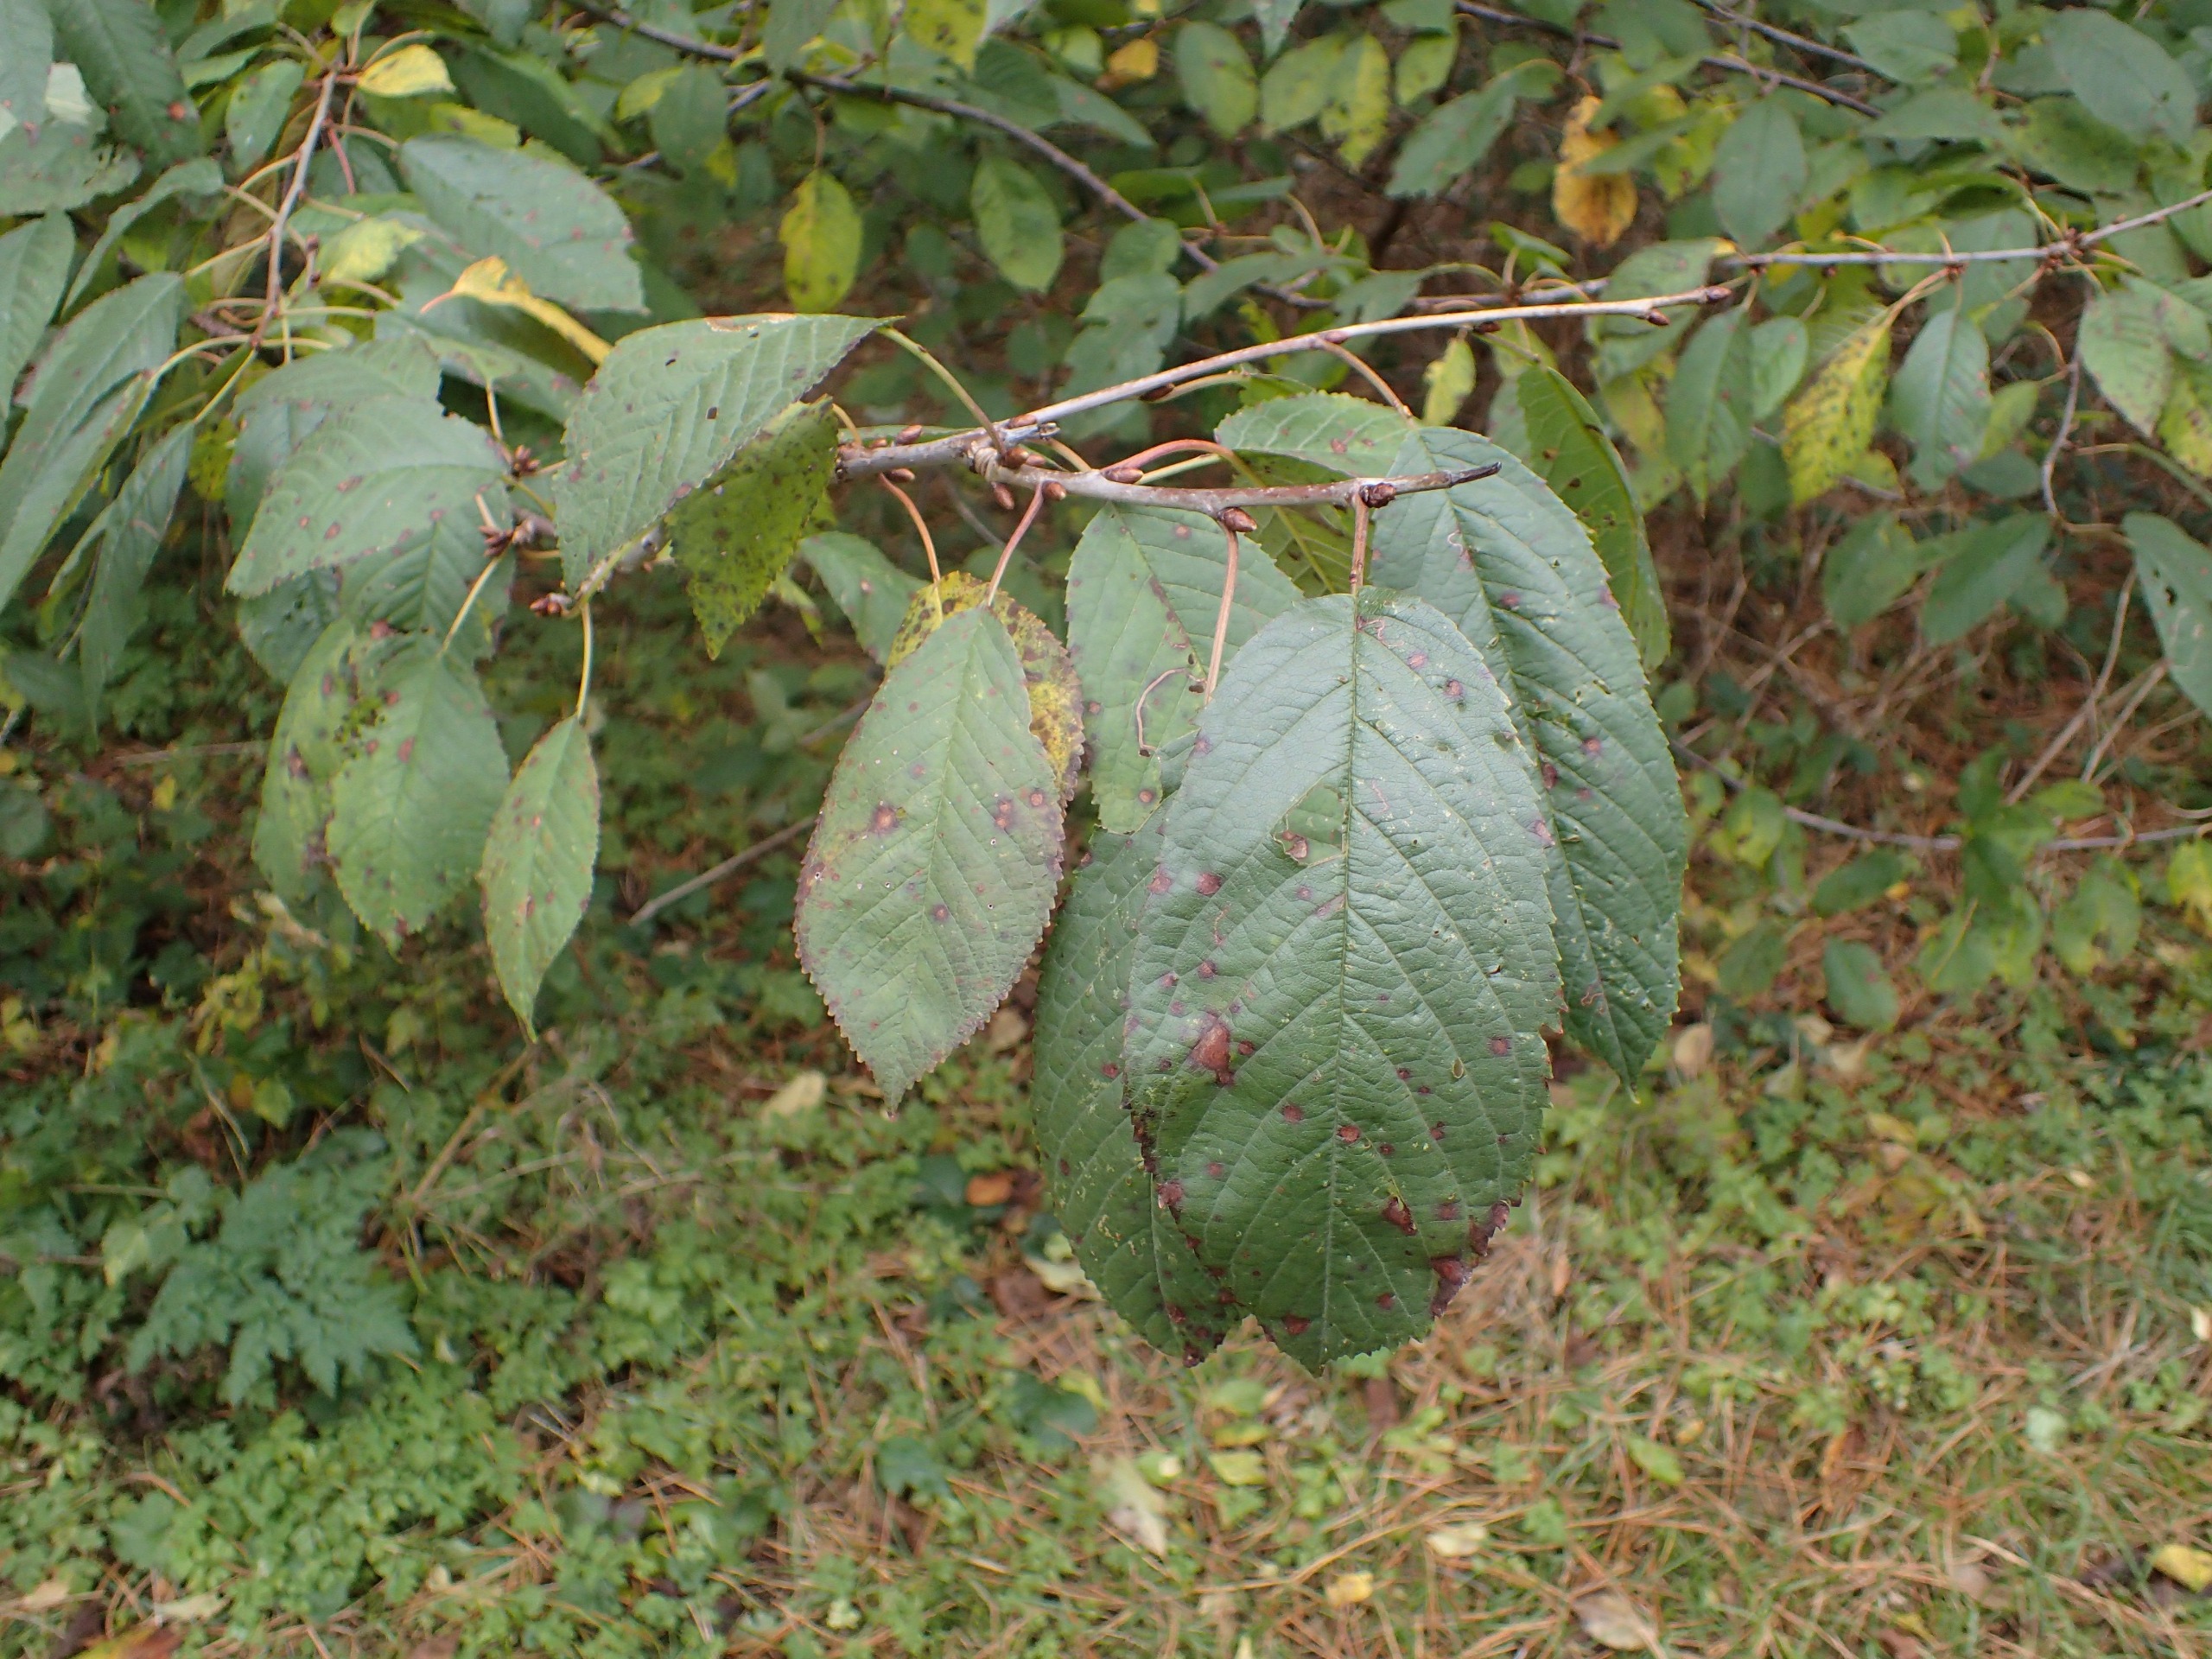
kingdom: Plantae
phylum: Tracheophyta
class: Magnoliopsida
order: Rosales
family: Rosaceae
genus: Prunus
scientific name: Prunus avium
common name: Fugle-kirsebær
